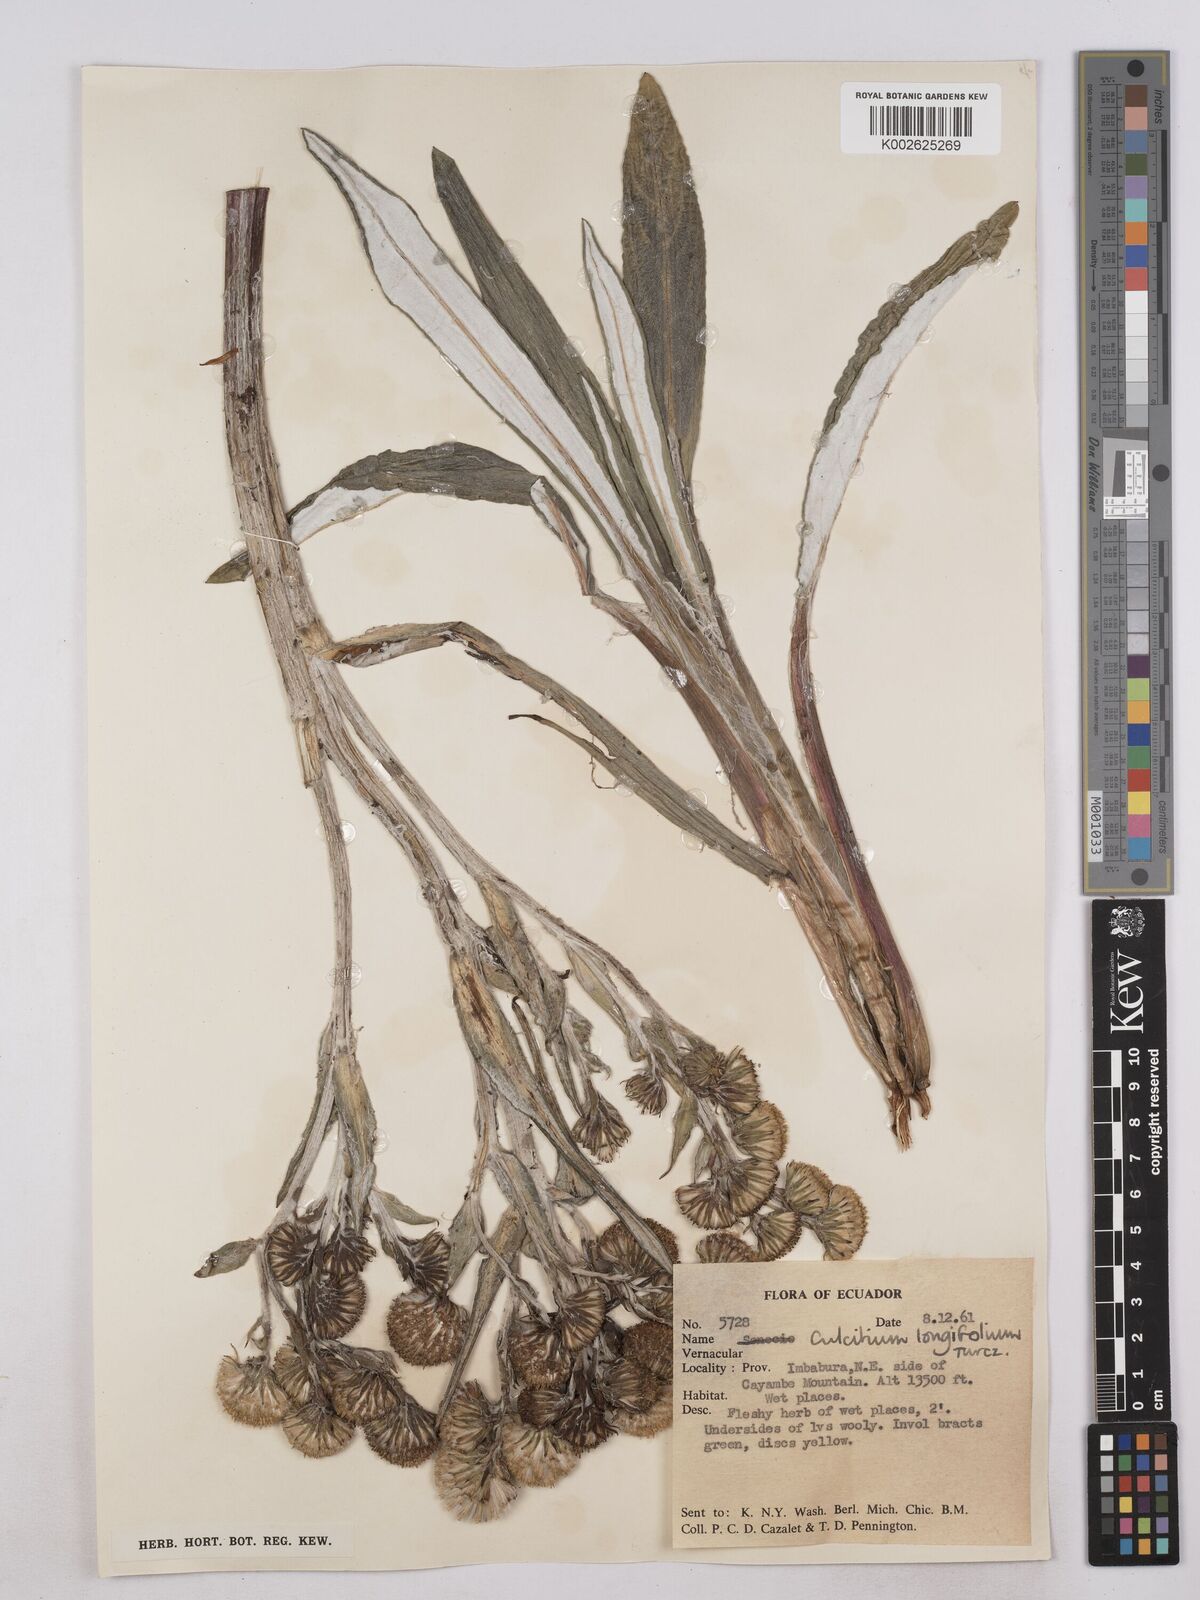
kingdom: Plantae
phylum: Tracheophyta
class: Magnoliopsida
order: Asterales
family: Asteraceae
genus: Senecio
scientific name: Senecio comosus
